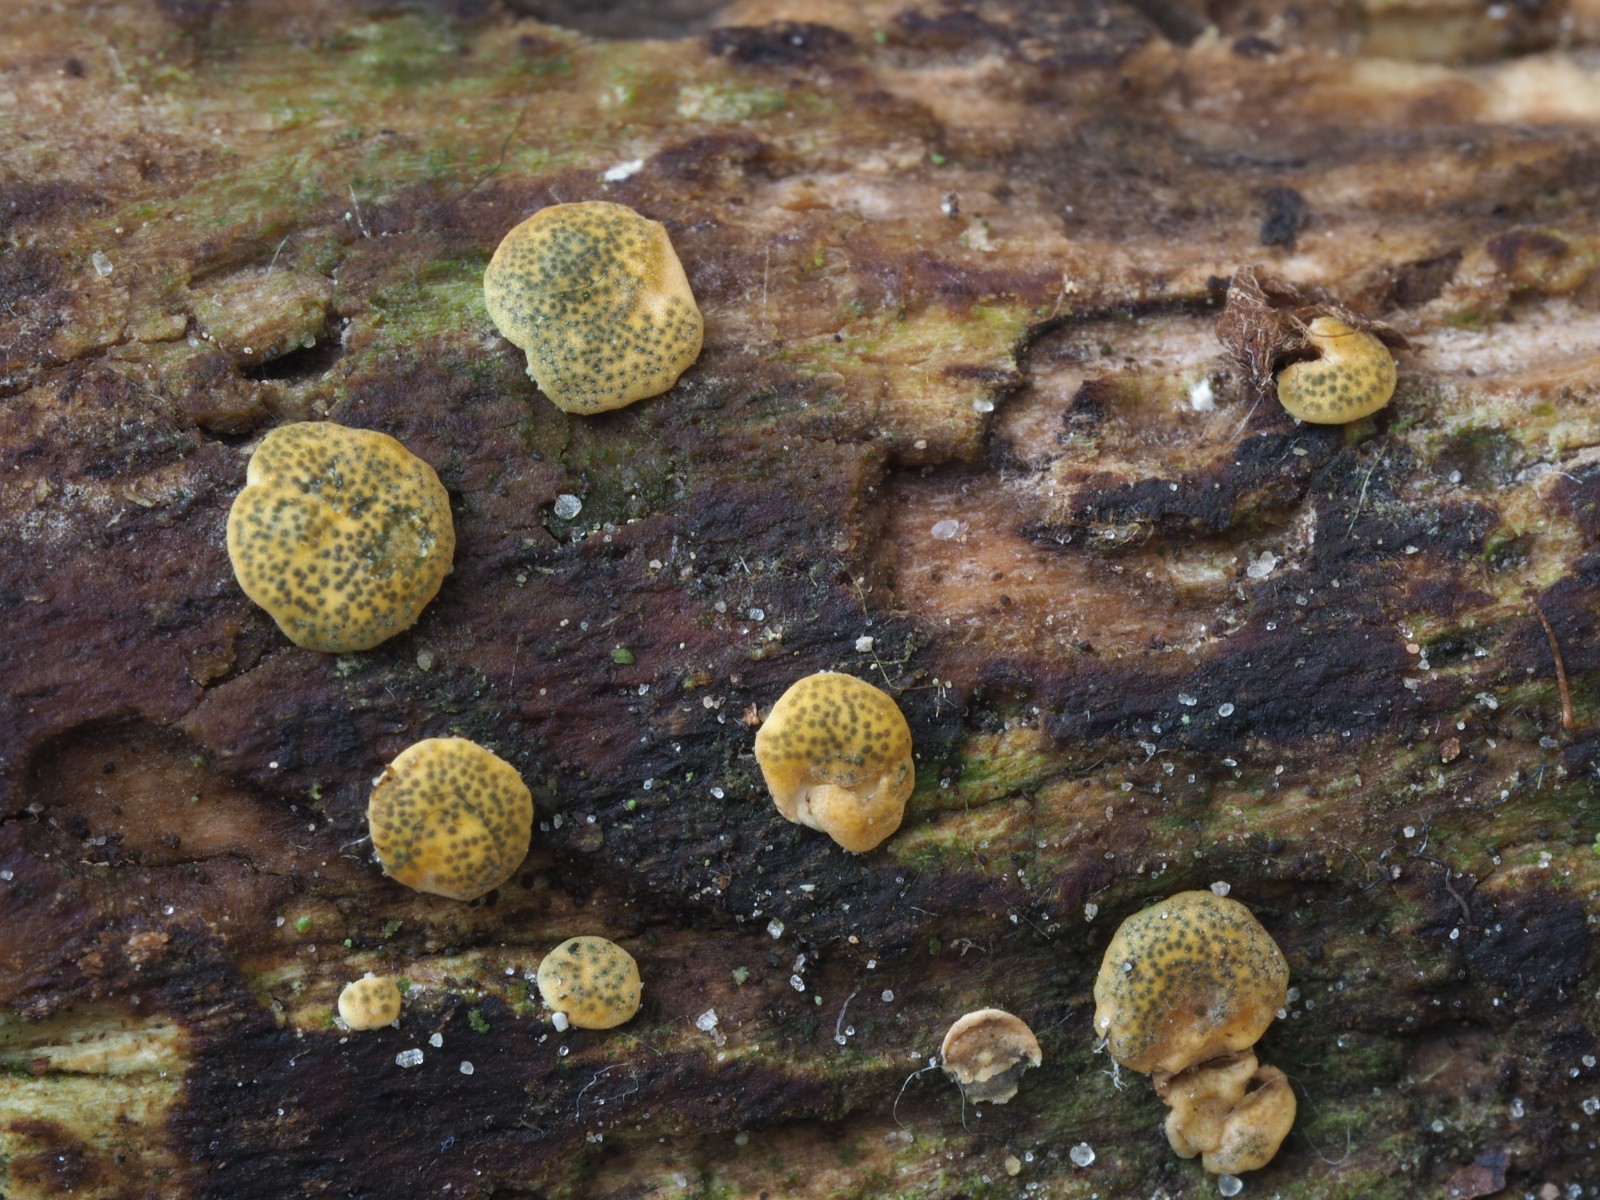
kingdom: Fungi
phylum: Ascomycota
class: Sordariomycetes
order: Hypocreales
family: Hypocreaceae
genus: Trichoderma
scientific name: Trichoderma aureoviride
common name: æggegul kødkerne
